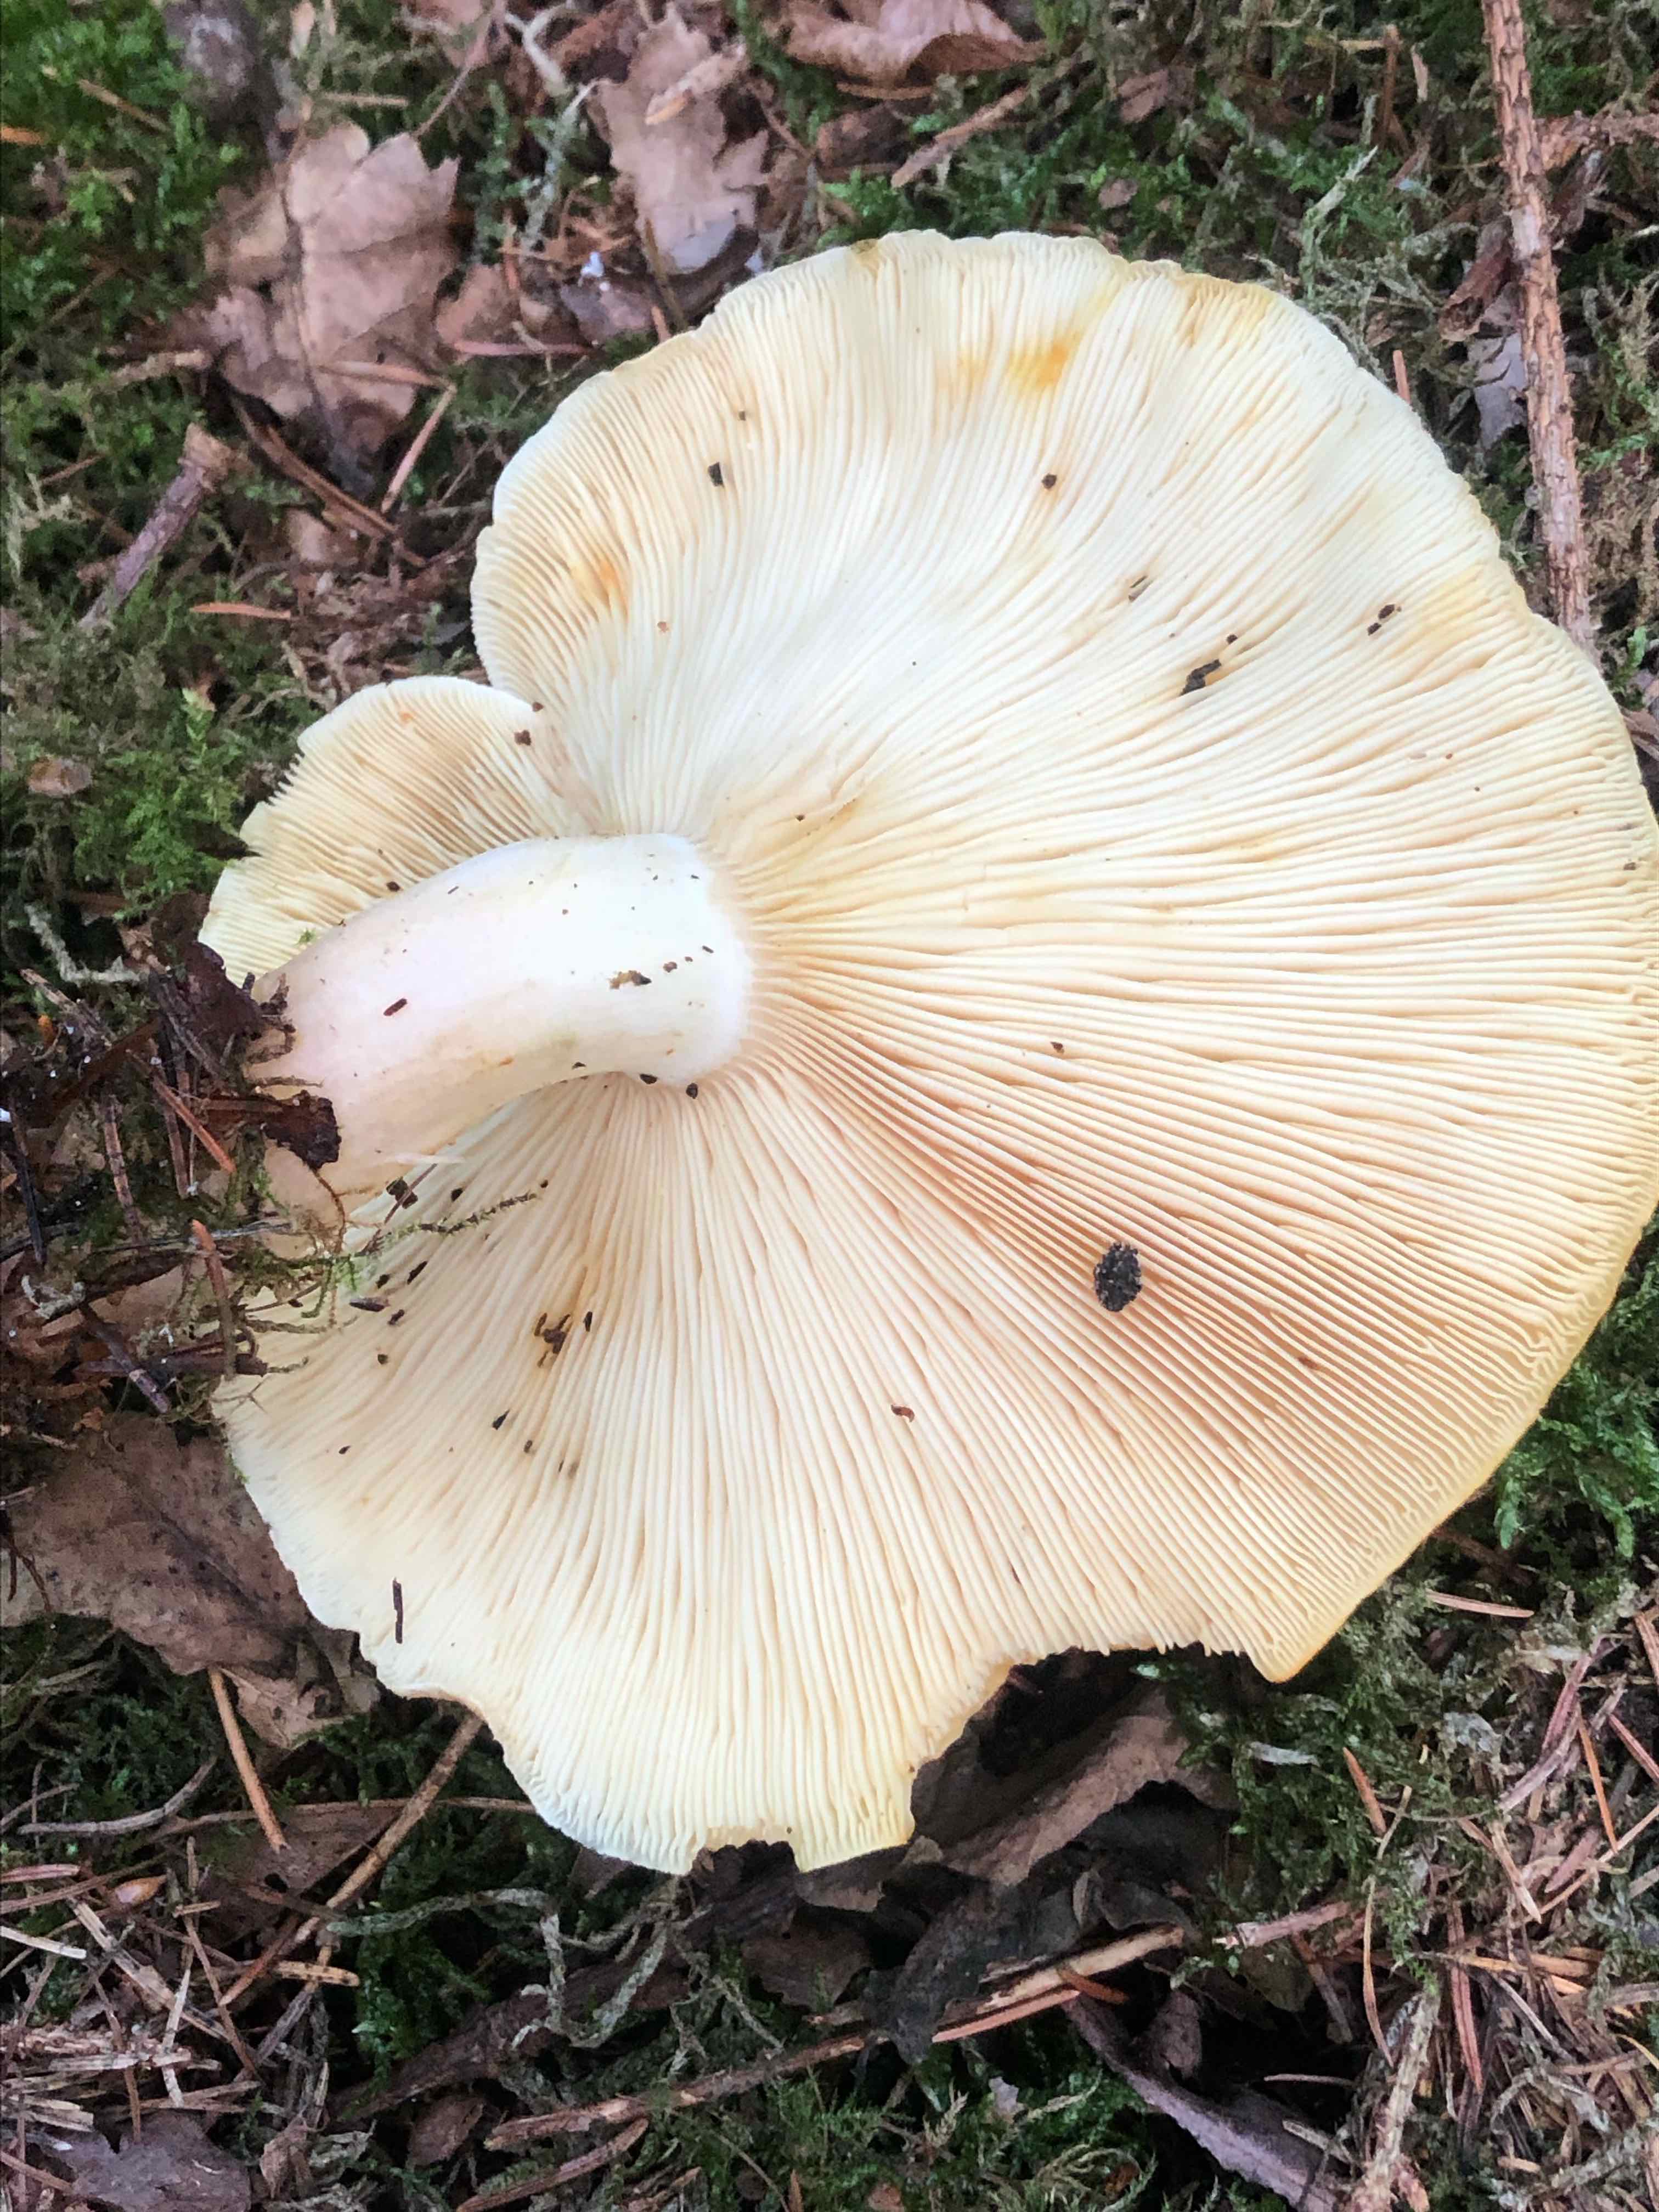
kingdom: Fungi
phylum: Basidiomycota
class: Agaricomycetes
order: Agaricales
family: Tricholomataceae
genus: Tricholomopsis
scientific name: Tricholomopsis rutilans
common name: purpur-væbnerhat
